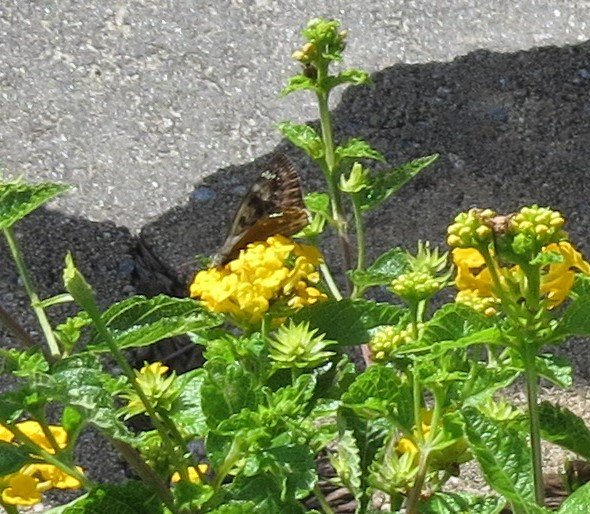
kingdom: Animalia
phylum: Arthropoda
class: Insecta
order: Lepidoptera
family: Hesperiidae
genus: Gesta
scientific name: Gesta
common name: Horace's Duskywing
